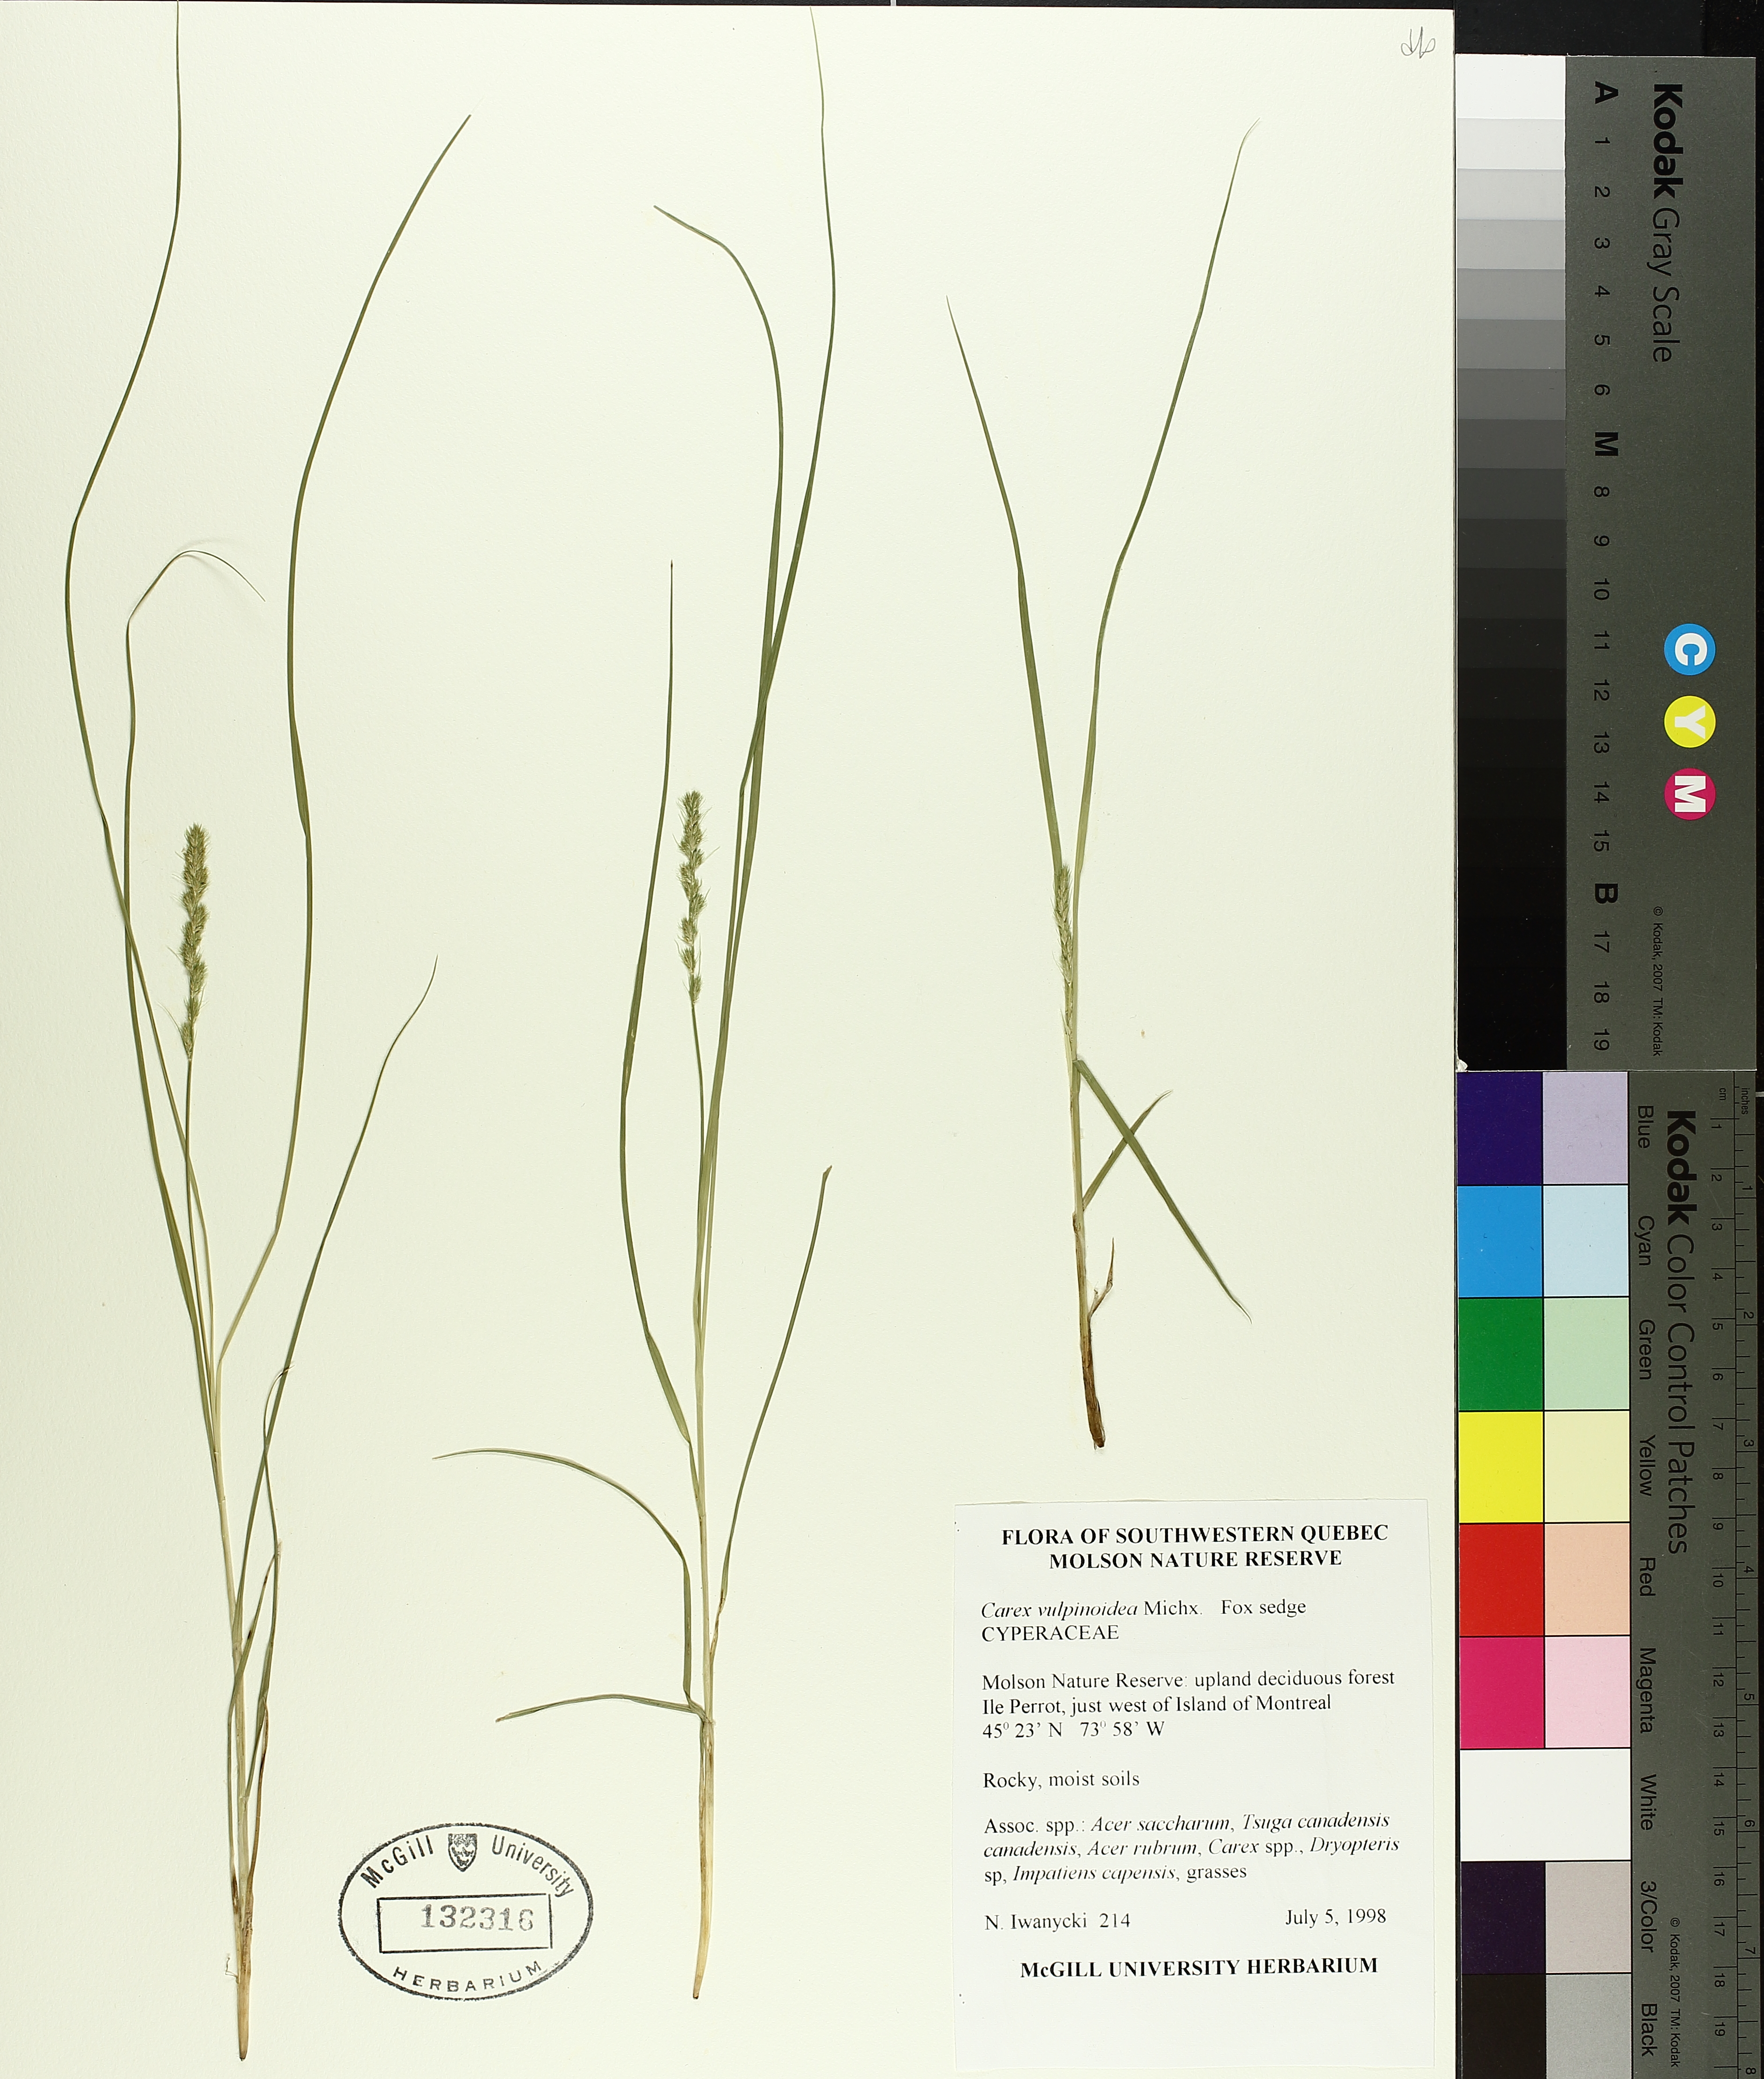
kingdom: Plantae
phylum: Tracheophyta
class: Liliopsida
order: Poales
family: Cyperaceae
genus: Carex
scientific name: Carex vulpinoidea
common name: American fox-sedge
